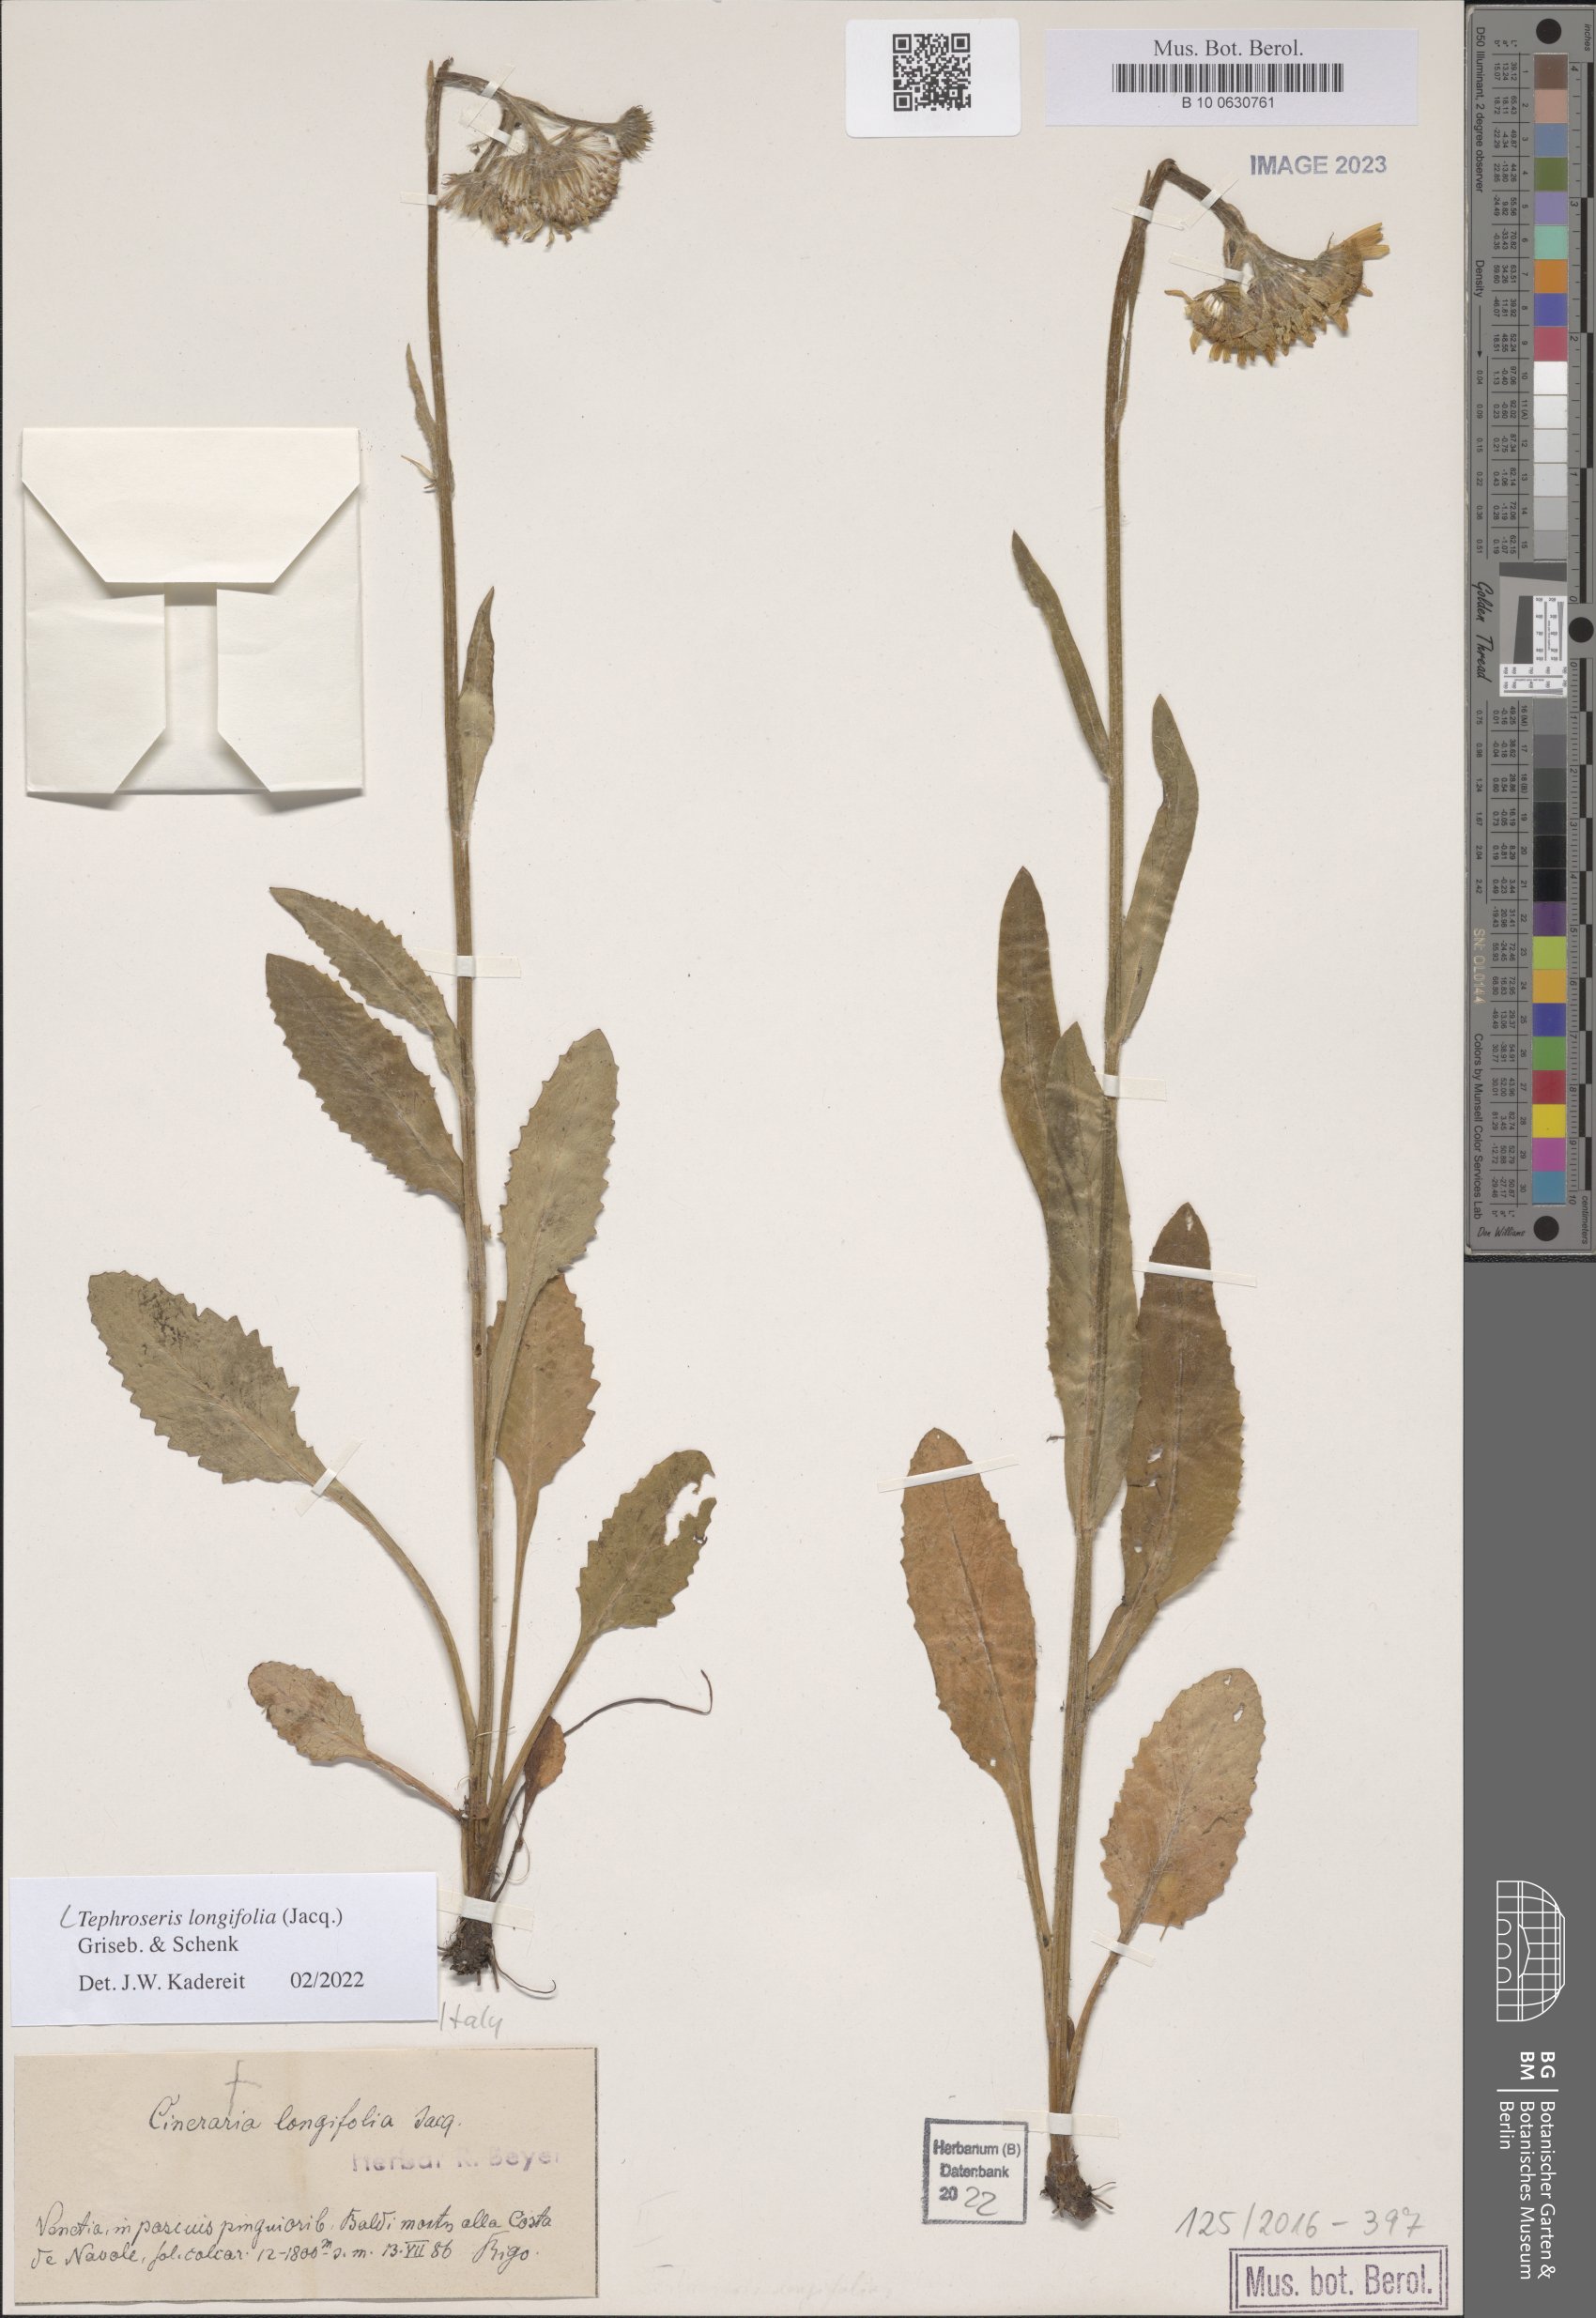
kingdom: Plantae
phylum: Tracheophyta
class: Magnoliopsida
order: Asterales
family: Asteraceae
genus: Tephroseris
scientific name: Tephroseris longifolia
